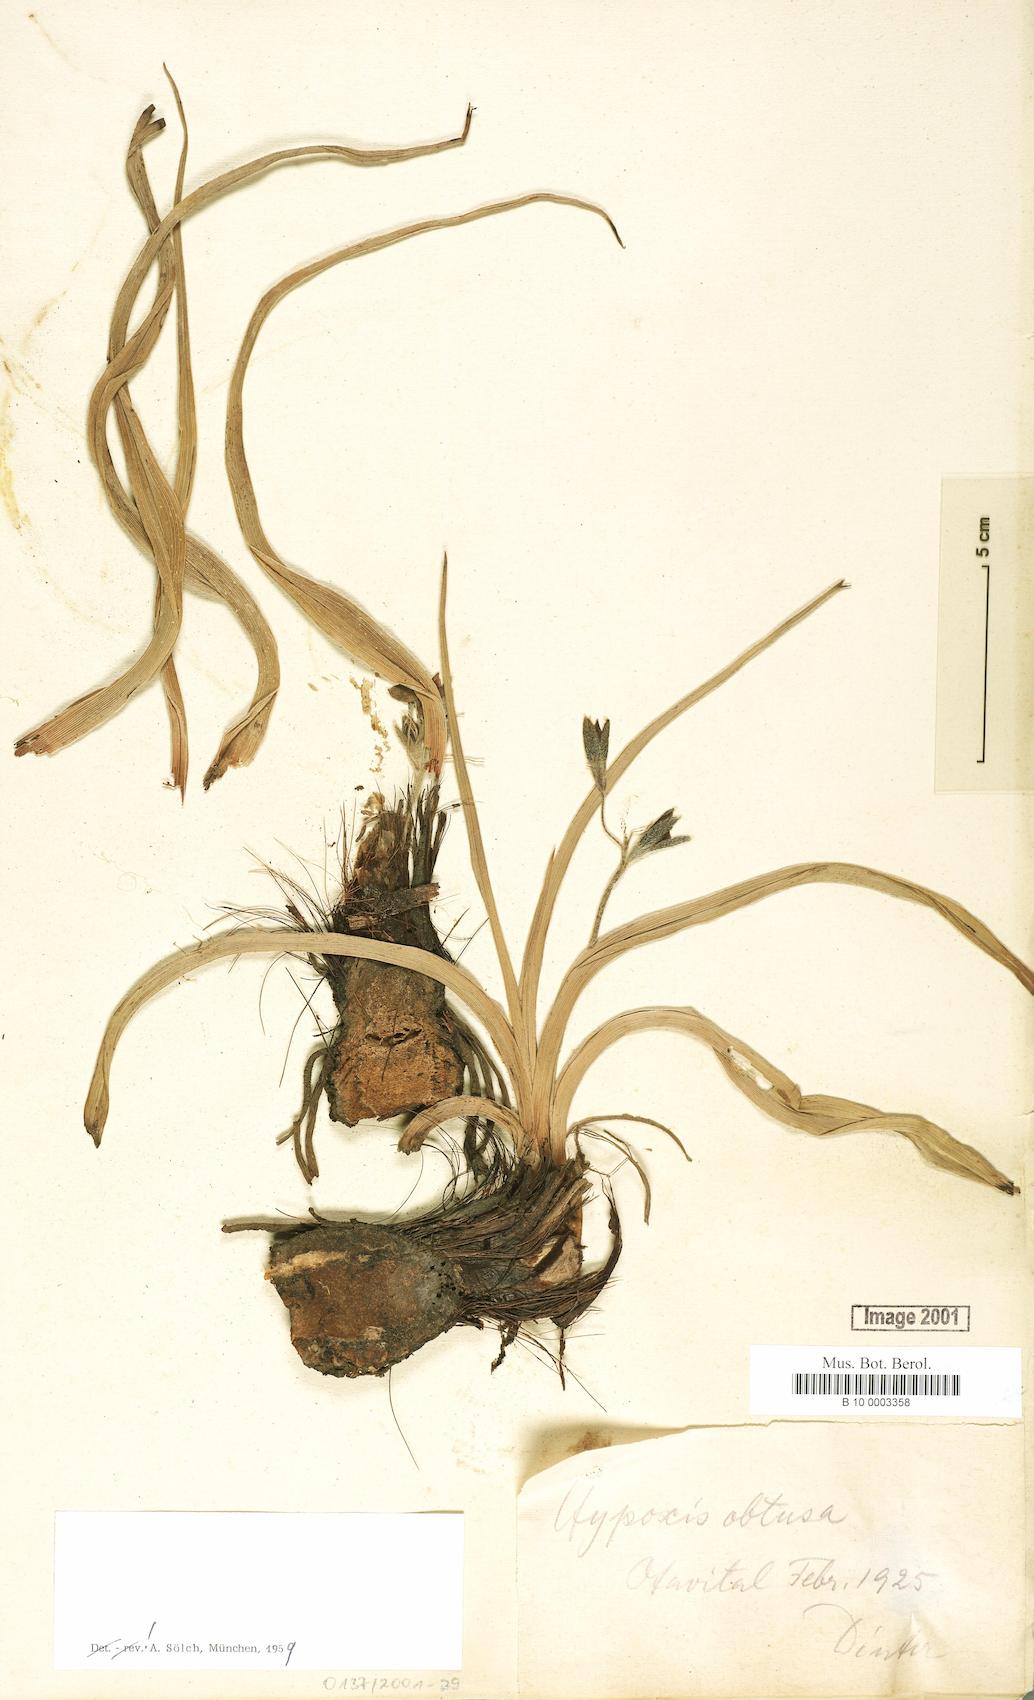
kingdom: Plantae
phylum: Tracheophyta
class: Liliopsida
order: Asparagales
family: Hypoxidaceae
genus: Hypoxis
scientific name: Hypoxis obtusa
